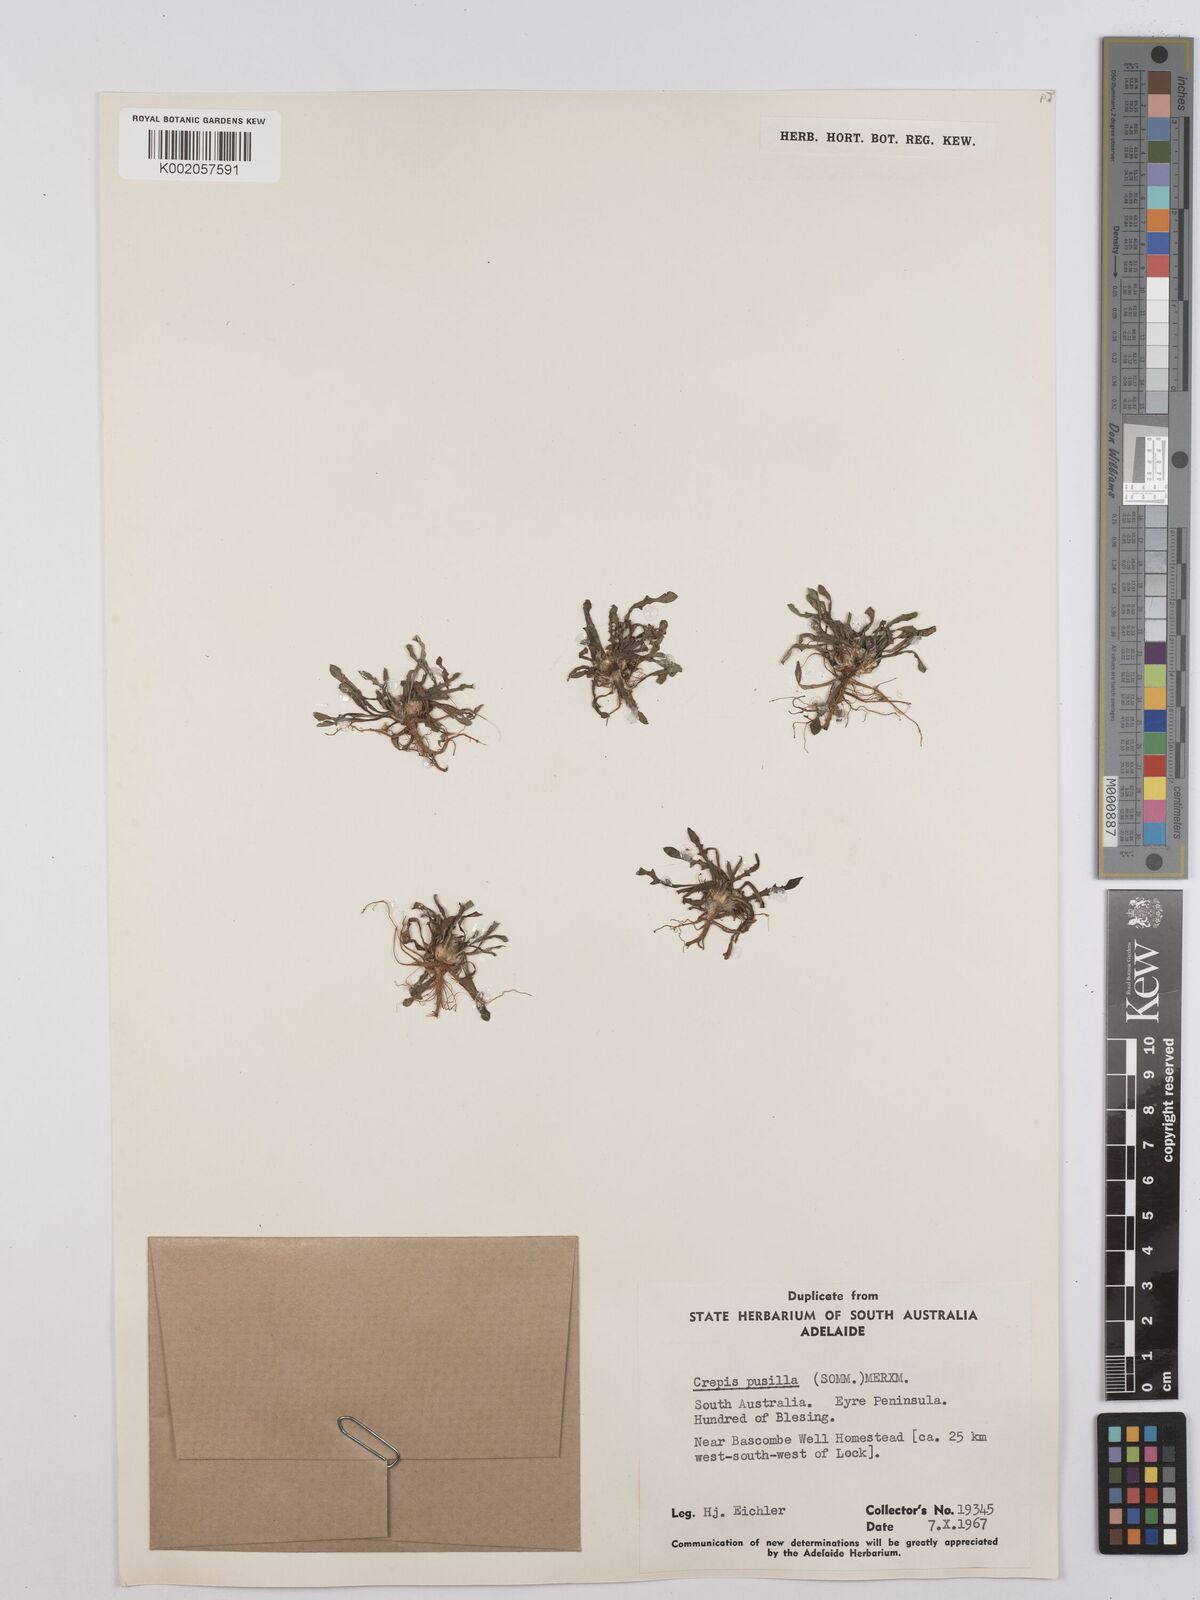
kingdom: Plantae
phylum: Tracheophyta
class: Magnoliopsida
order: Asterales
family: Asteraceae
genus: Crepis
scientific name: Crepis pusilla
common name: Dandelion crepis
